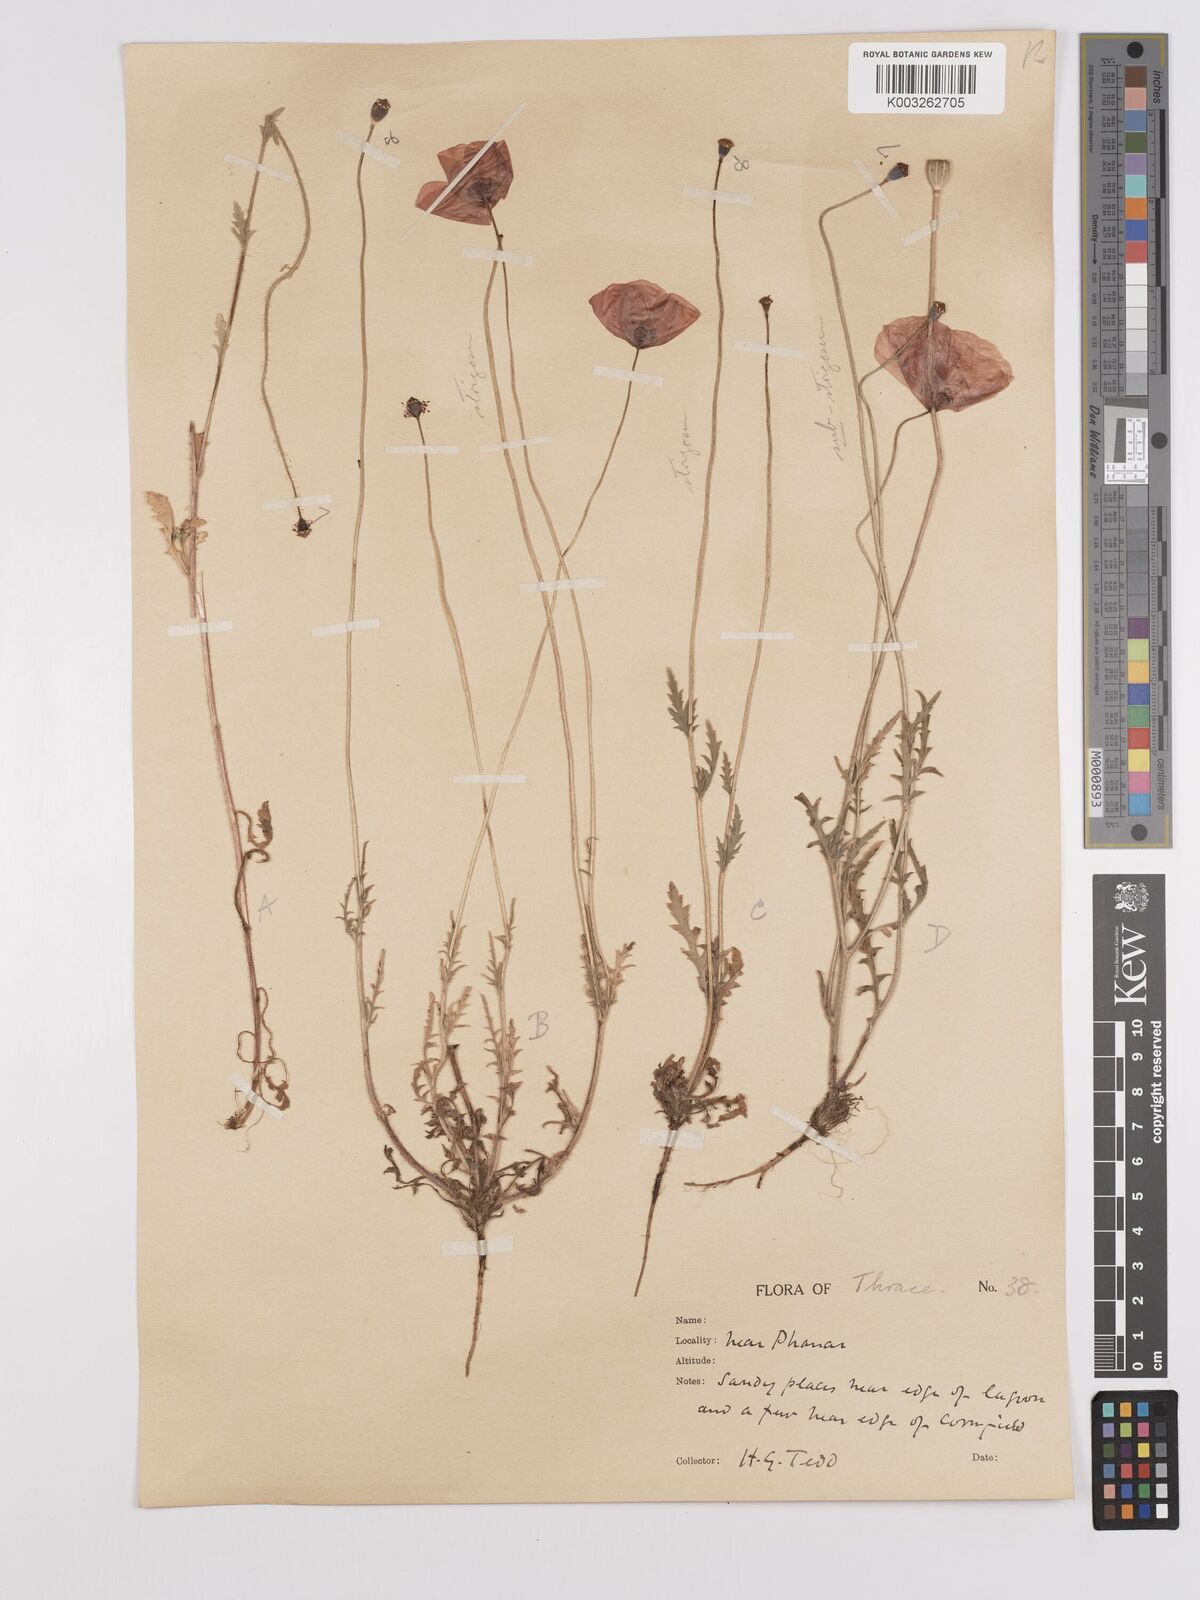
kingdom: Plantae
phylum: Tracheophyta
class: Magnoliopsida
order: Ranunculales
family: Papaveraceae
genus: Papaver
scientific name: Papaver
